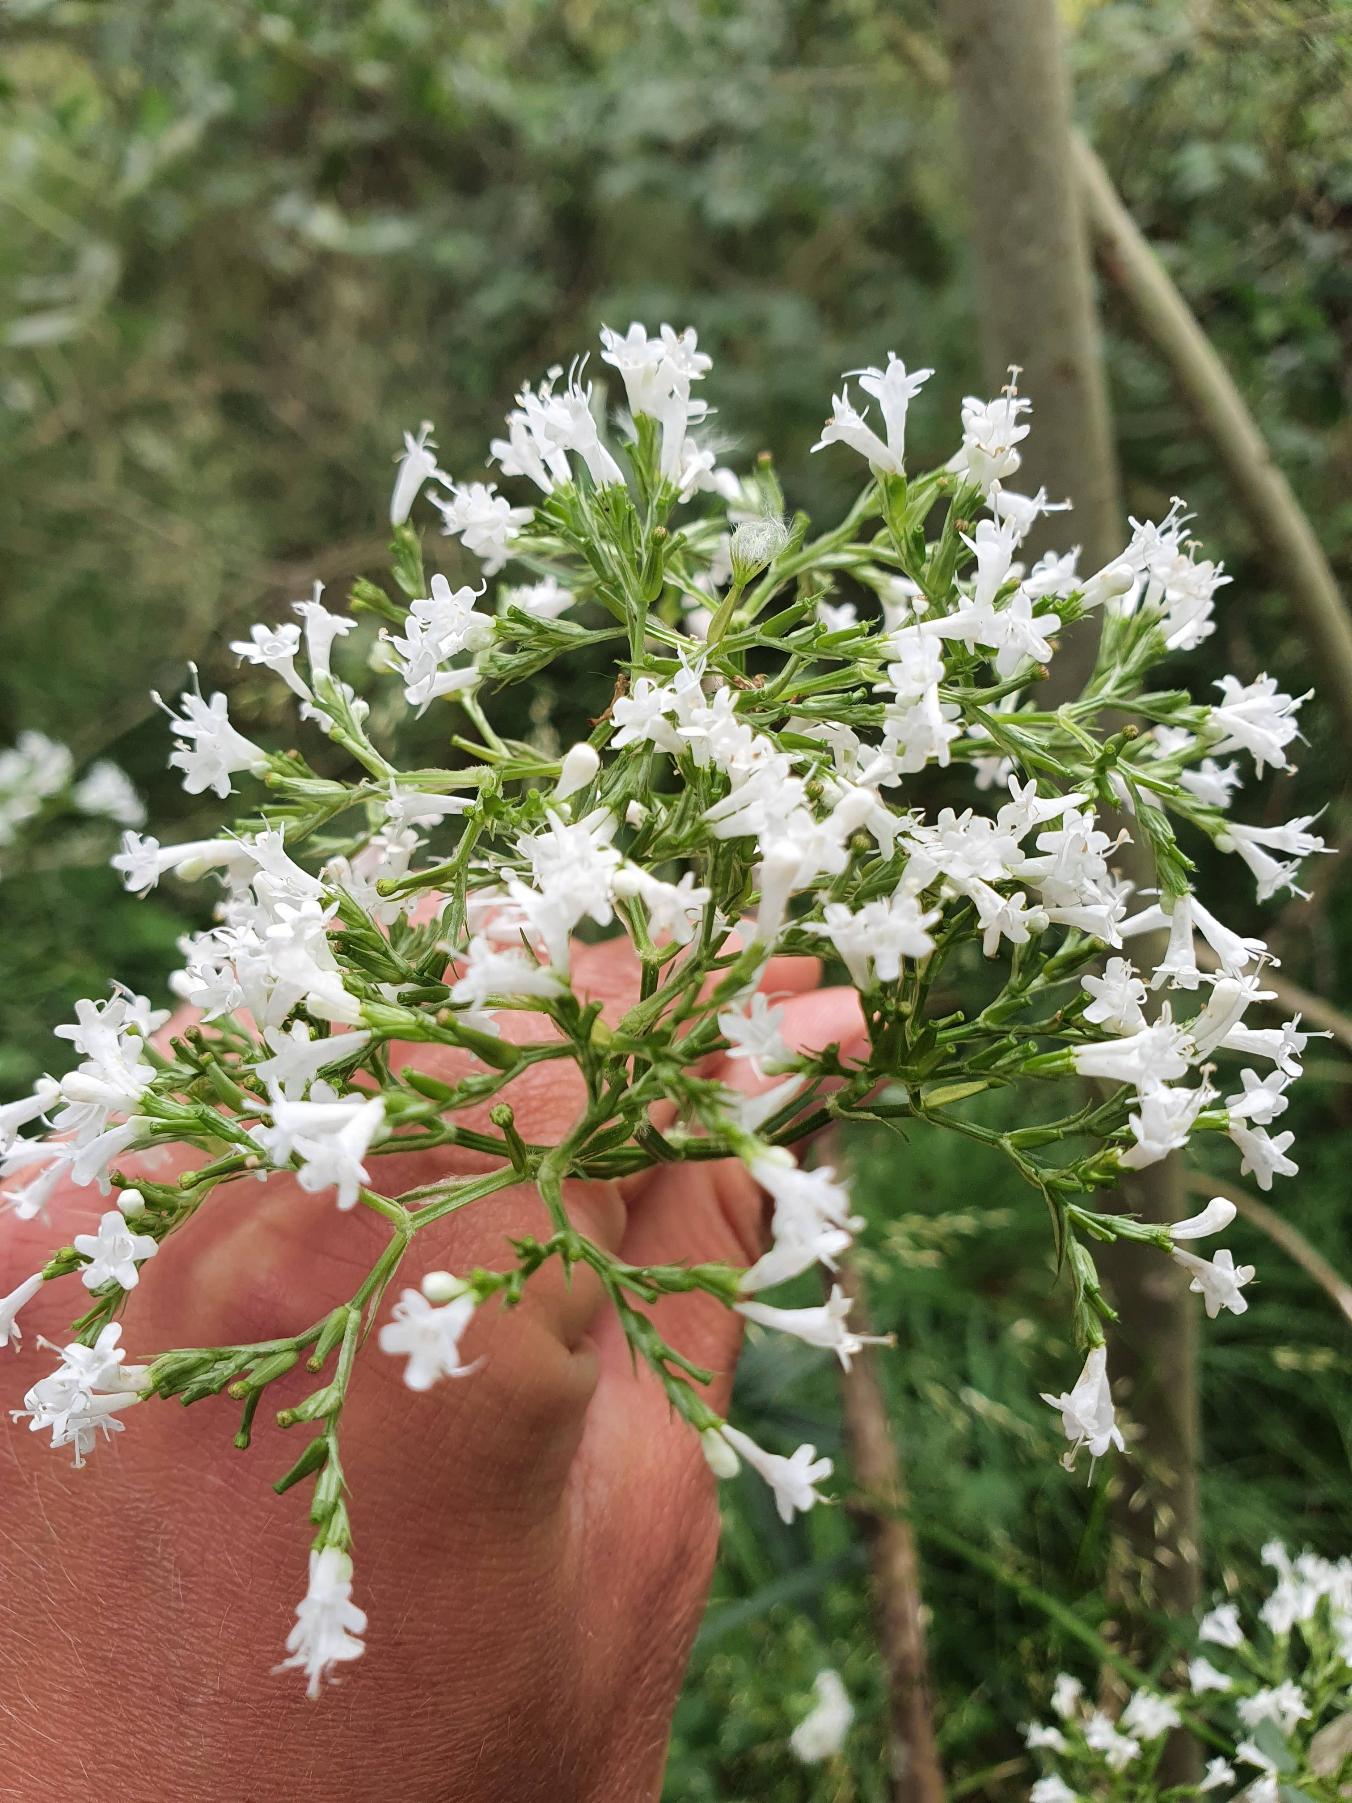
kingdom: Plantae
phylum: Tracheophyta
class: Magnoliopsida
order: Dipsacales
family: Caprifoliaceae
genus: Valeriana
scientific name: Valeriana sambucifolia
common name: Hyldebladet baldrian
